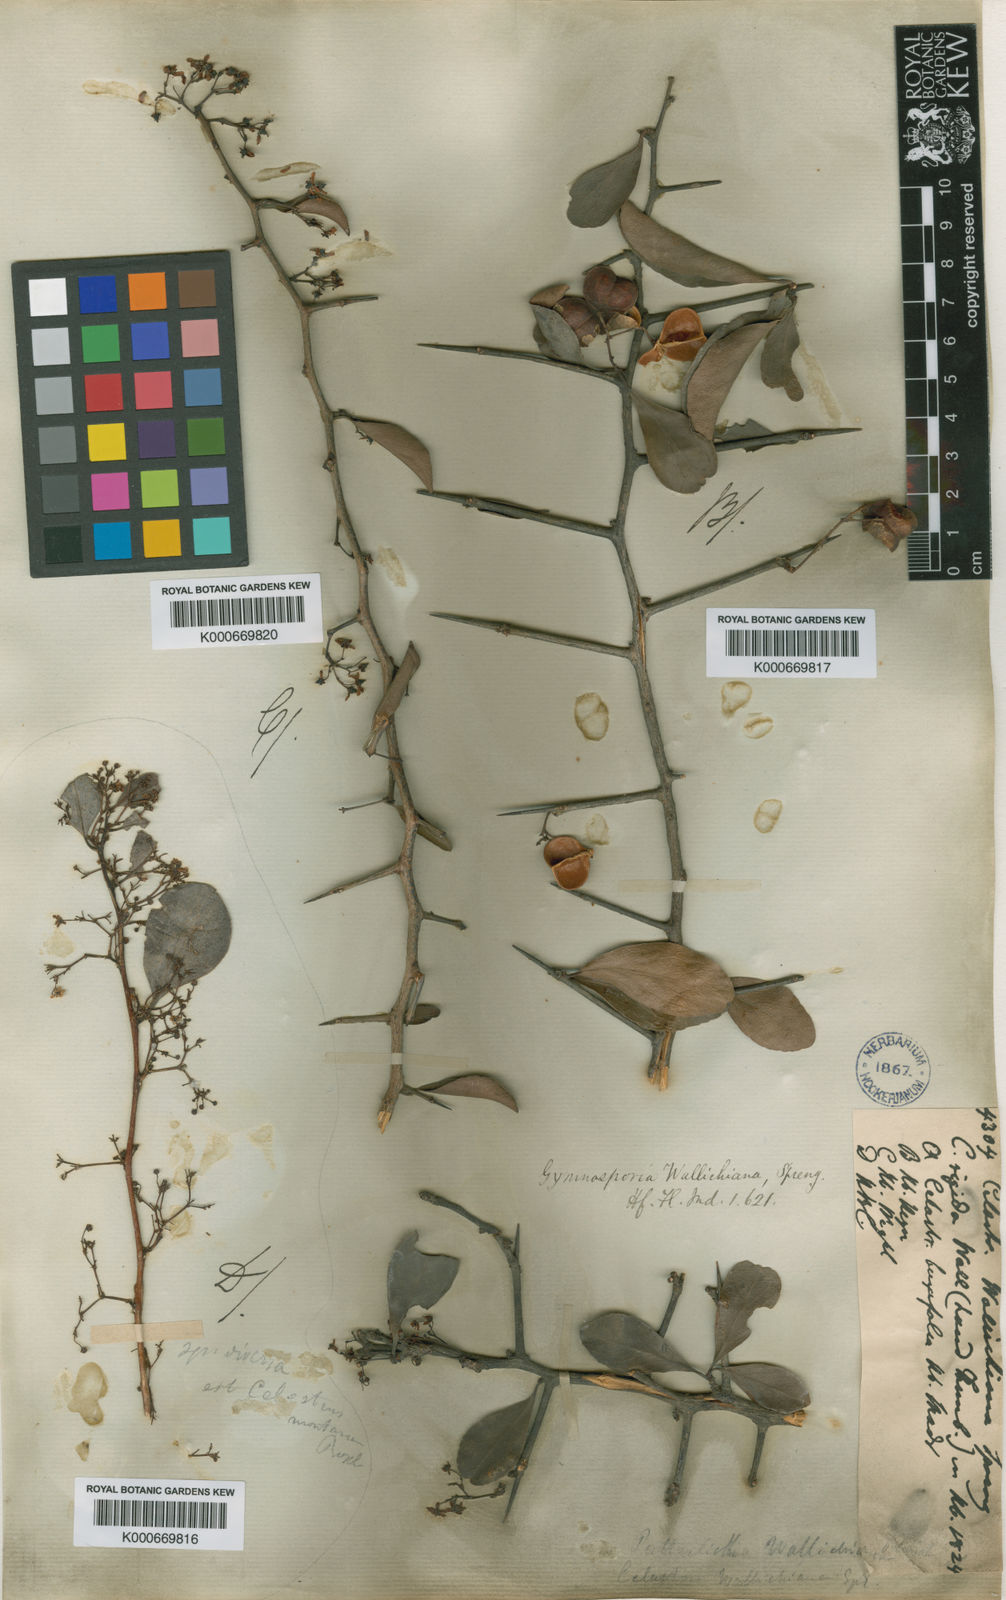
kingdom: Plantae
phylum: Tracheophyta
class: Magnoliopsida
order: Celastrales
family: Celastraceae
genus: Gymnosporia
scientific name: Gymnosporia wallichiana
